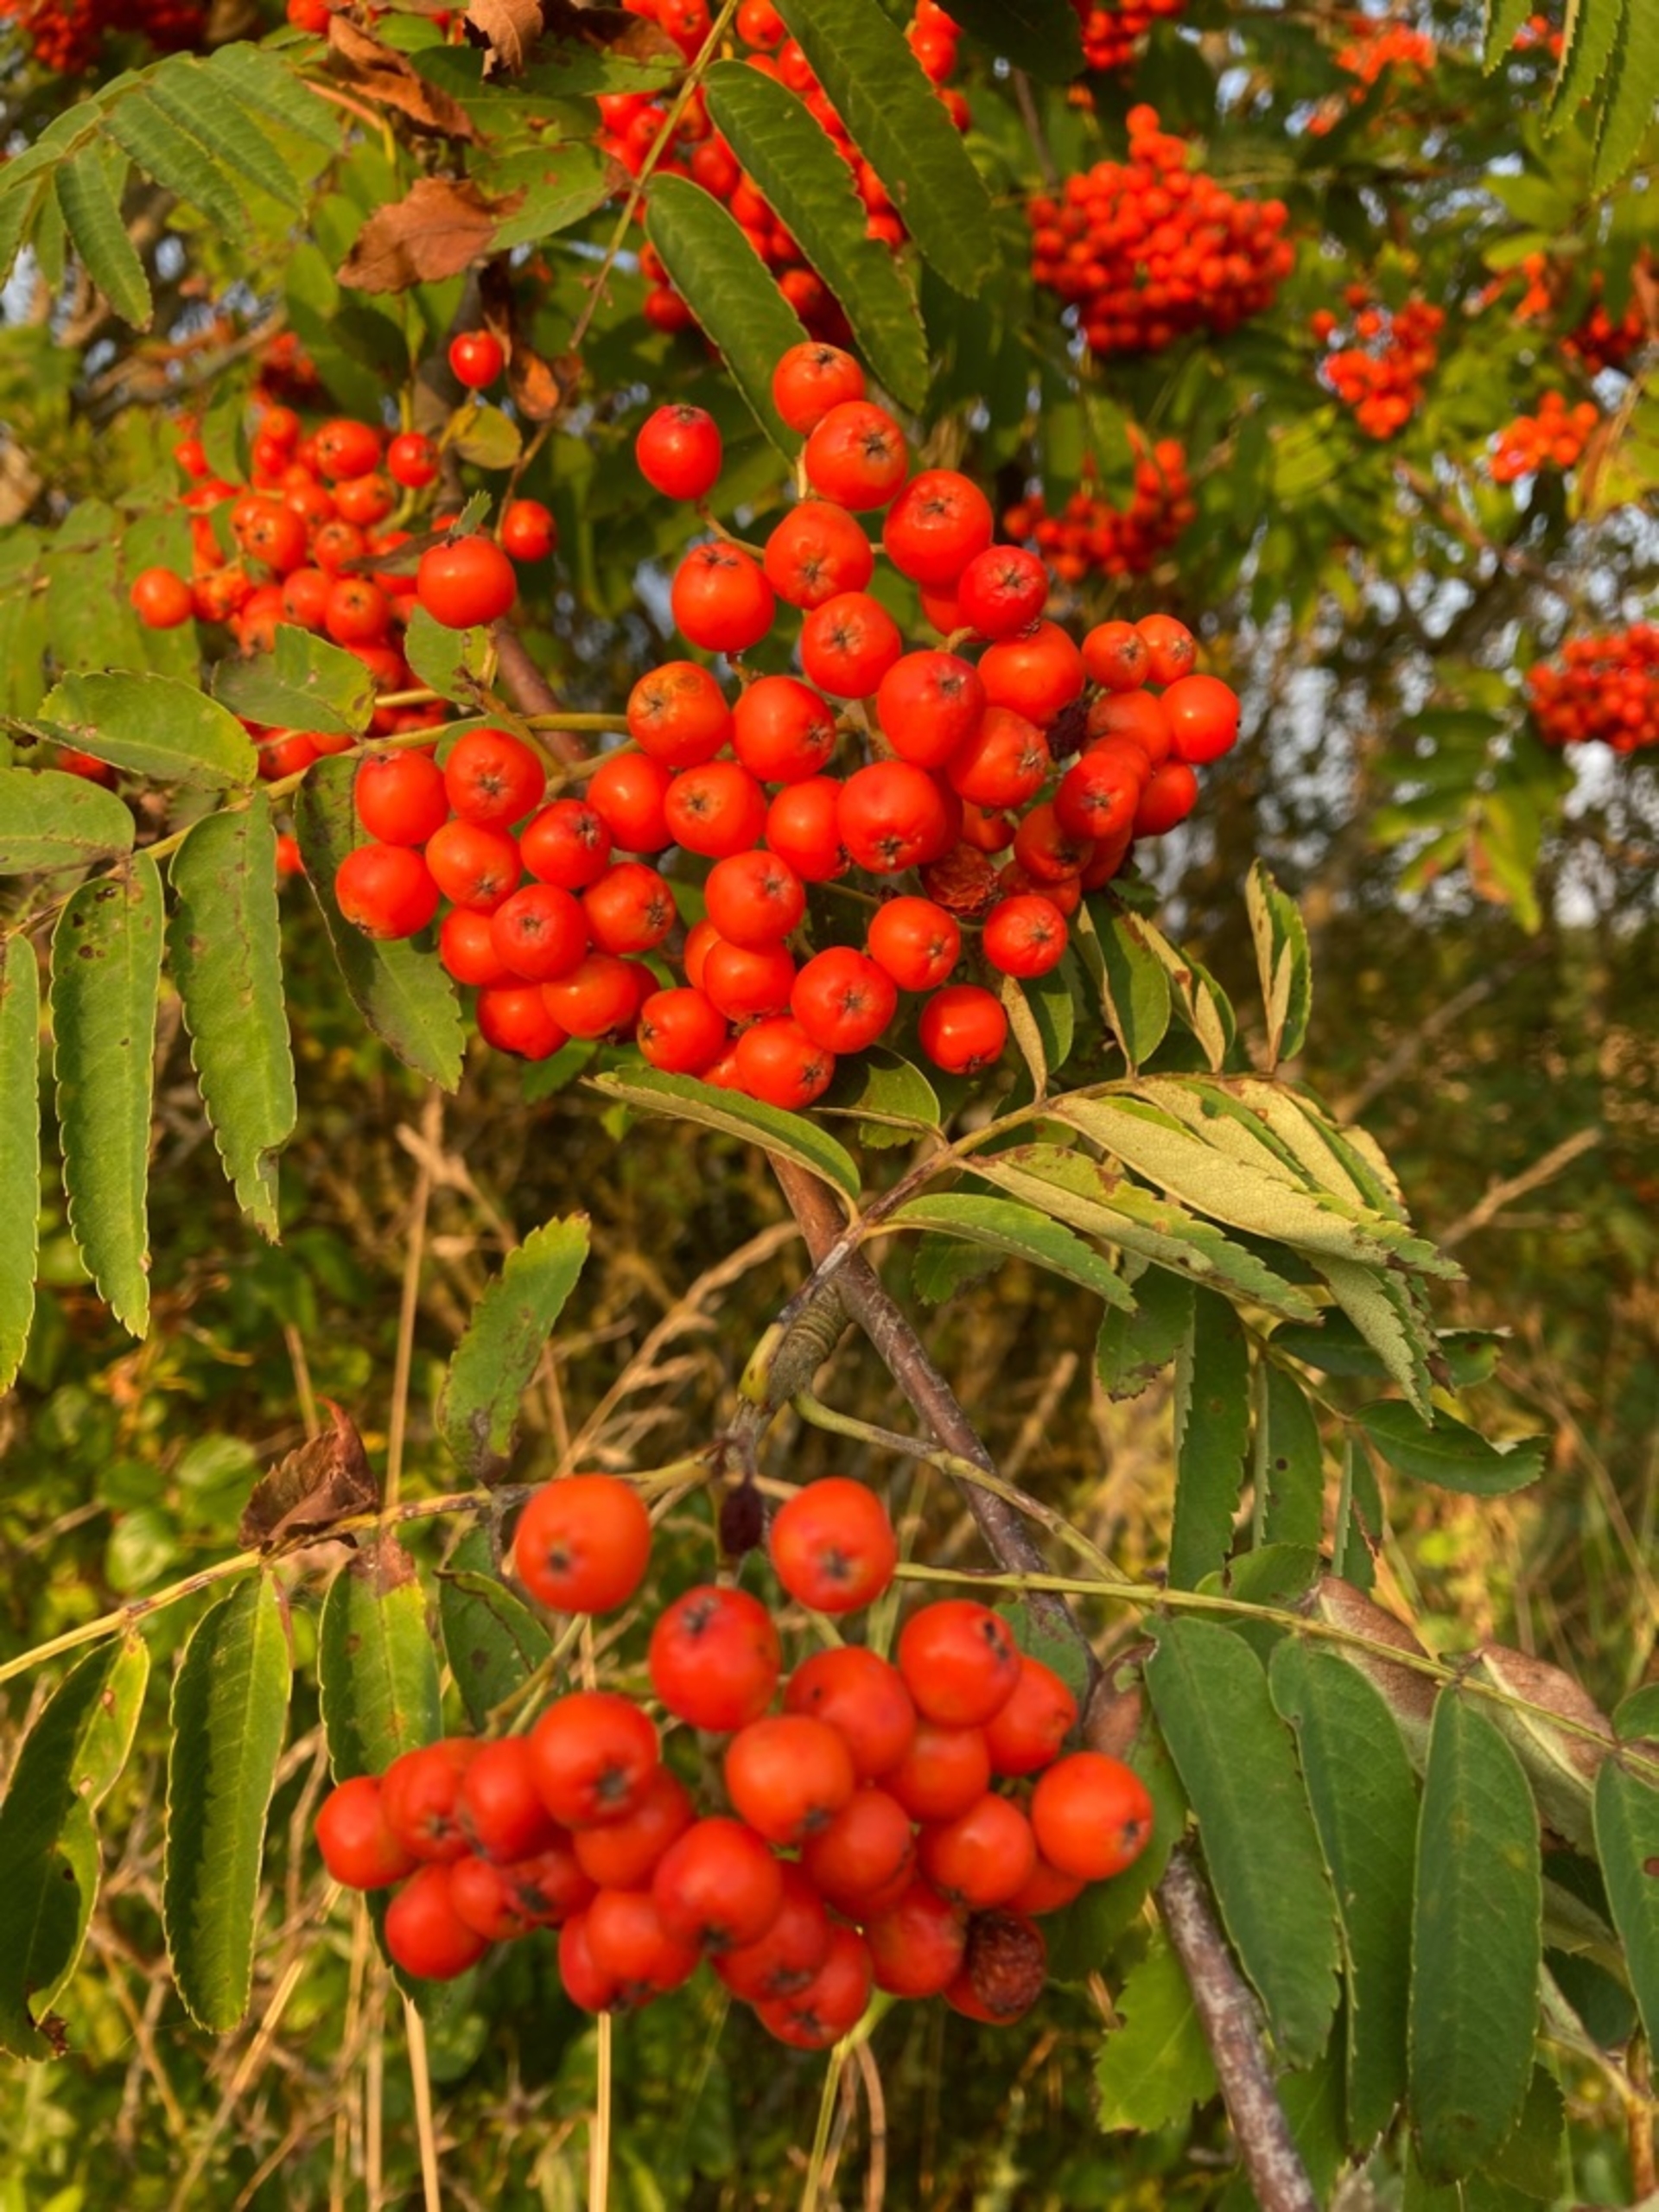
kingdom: Plantae
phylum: Tracheophyta
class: Magnoliopsida
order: Rosales
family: Rosaceae
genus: Sorbus
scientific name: Sorbus aucuparia
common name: Almindelig røn
